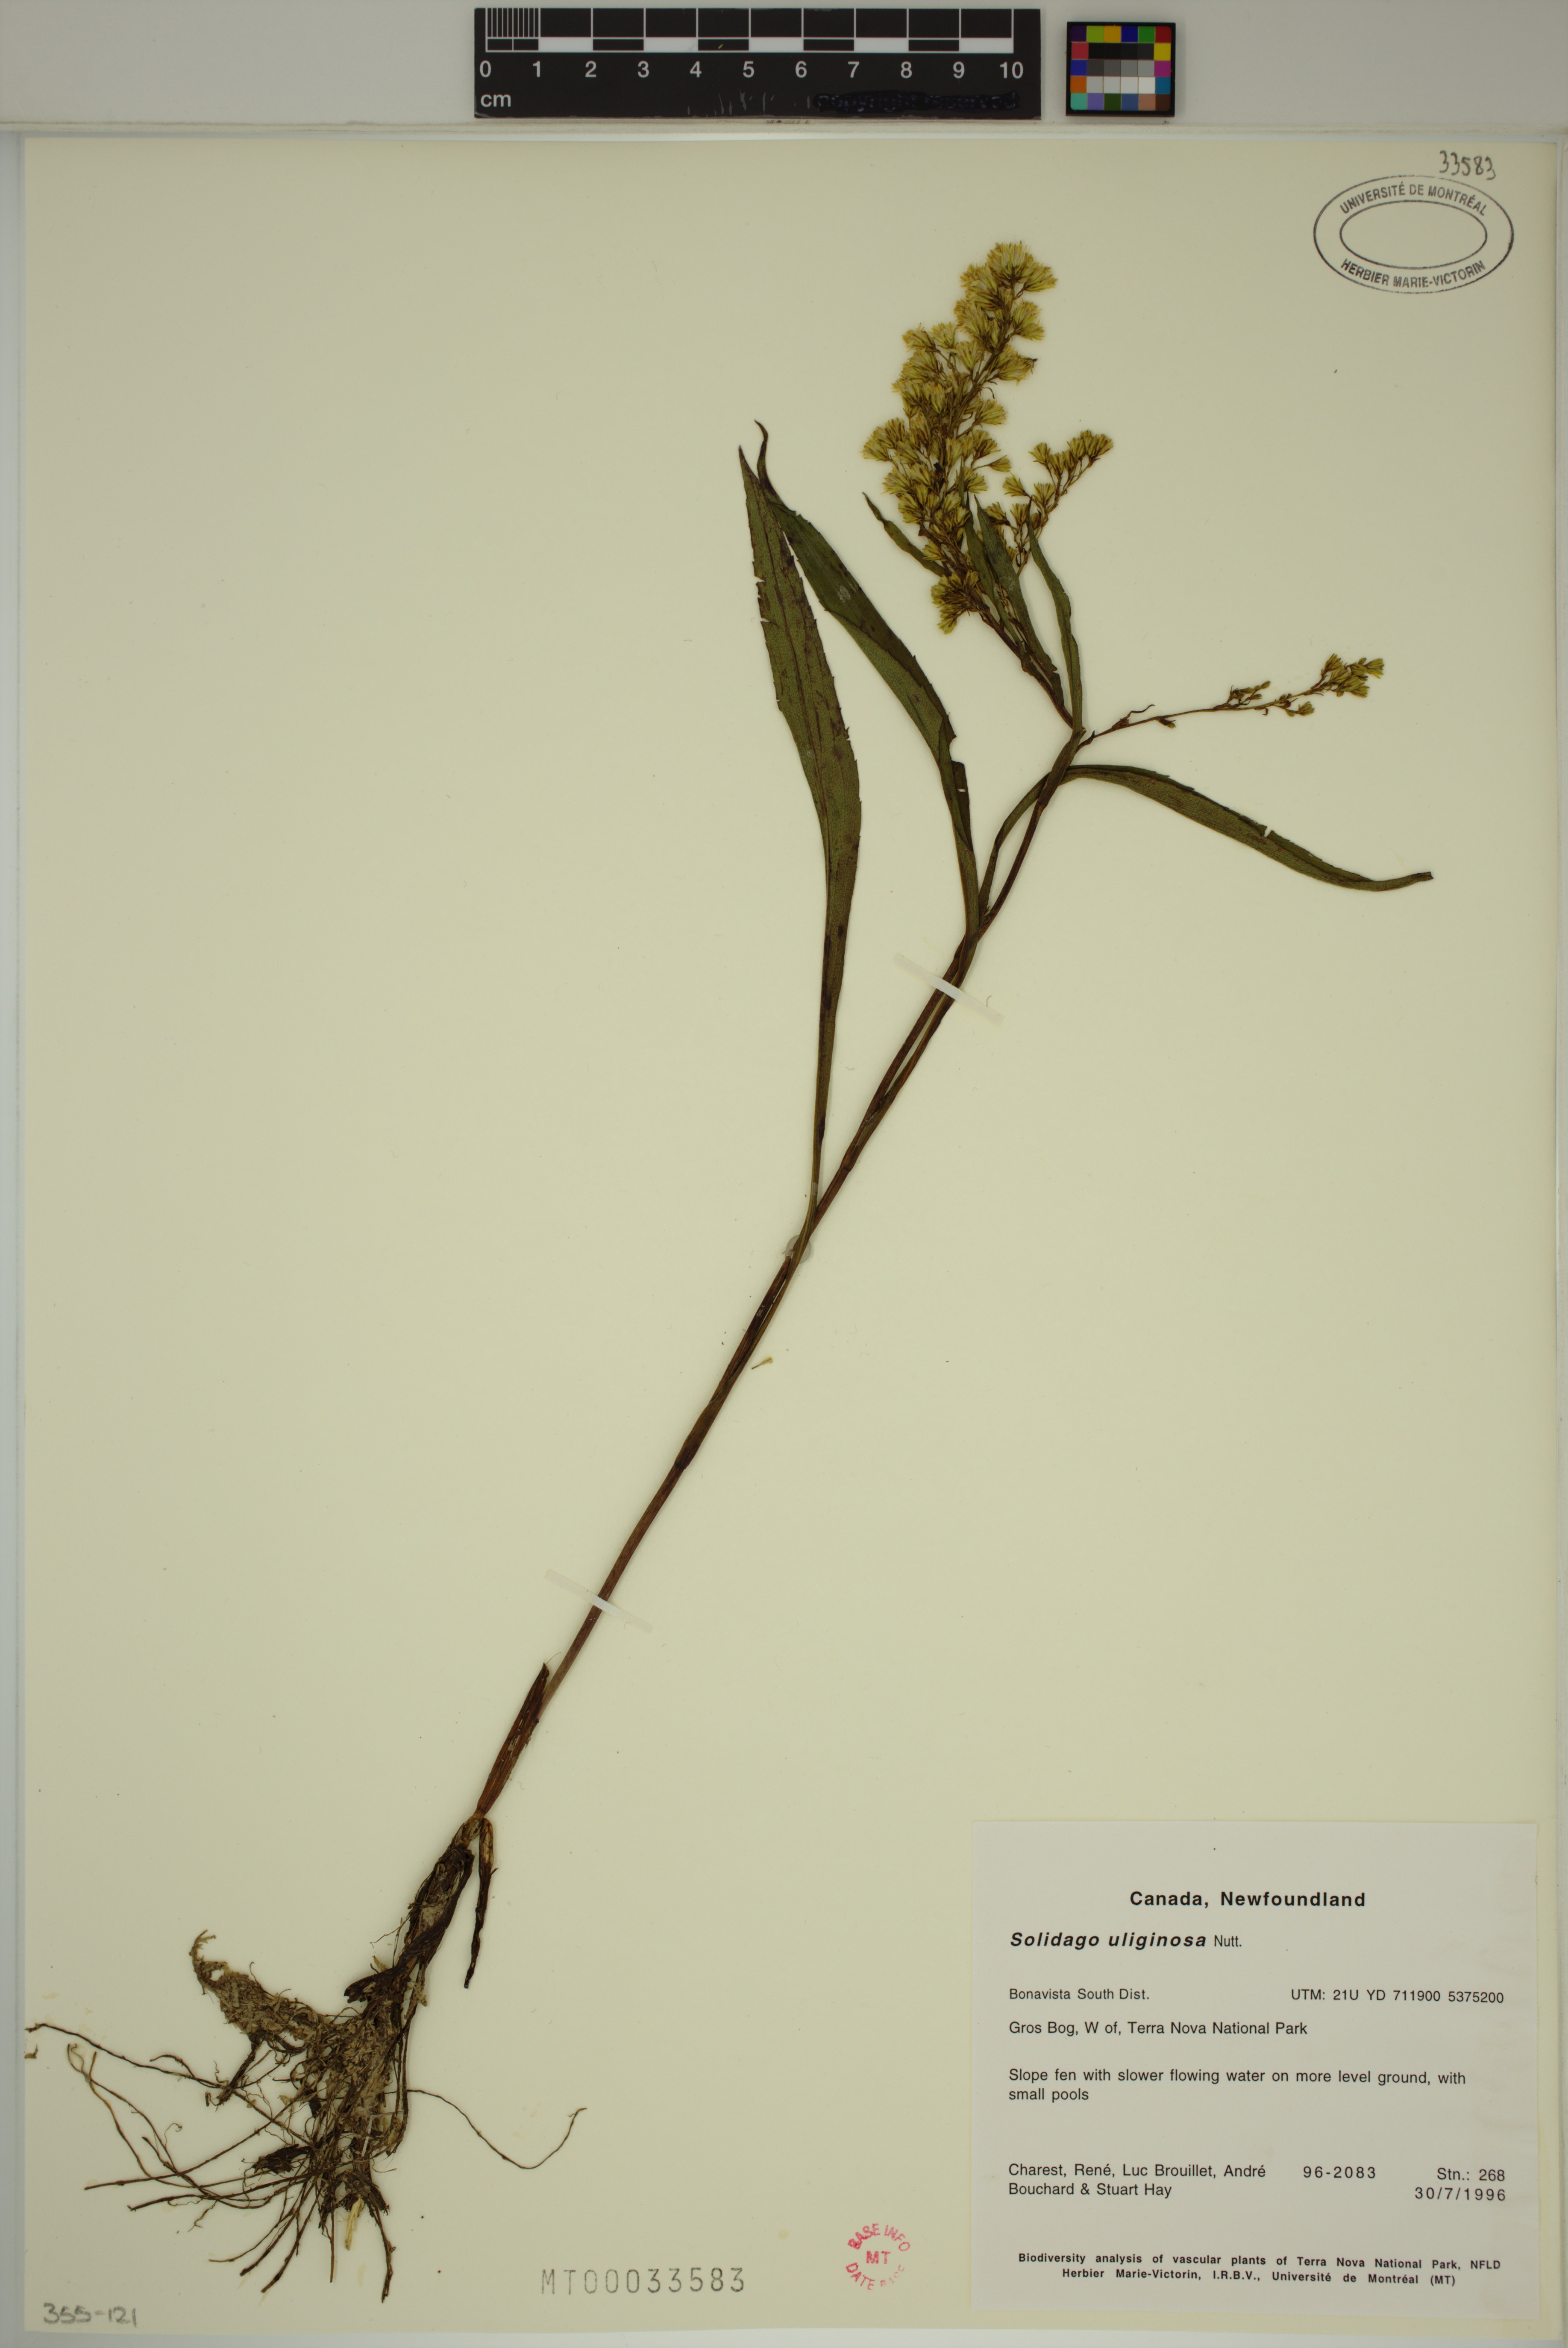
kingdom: Plantae
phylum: Tracheophyta
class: Magnoliopsida
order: Asterales
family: Asteraceae
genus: Solidago
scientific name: Solidago uliginosa
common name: Bog goldenrod
